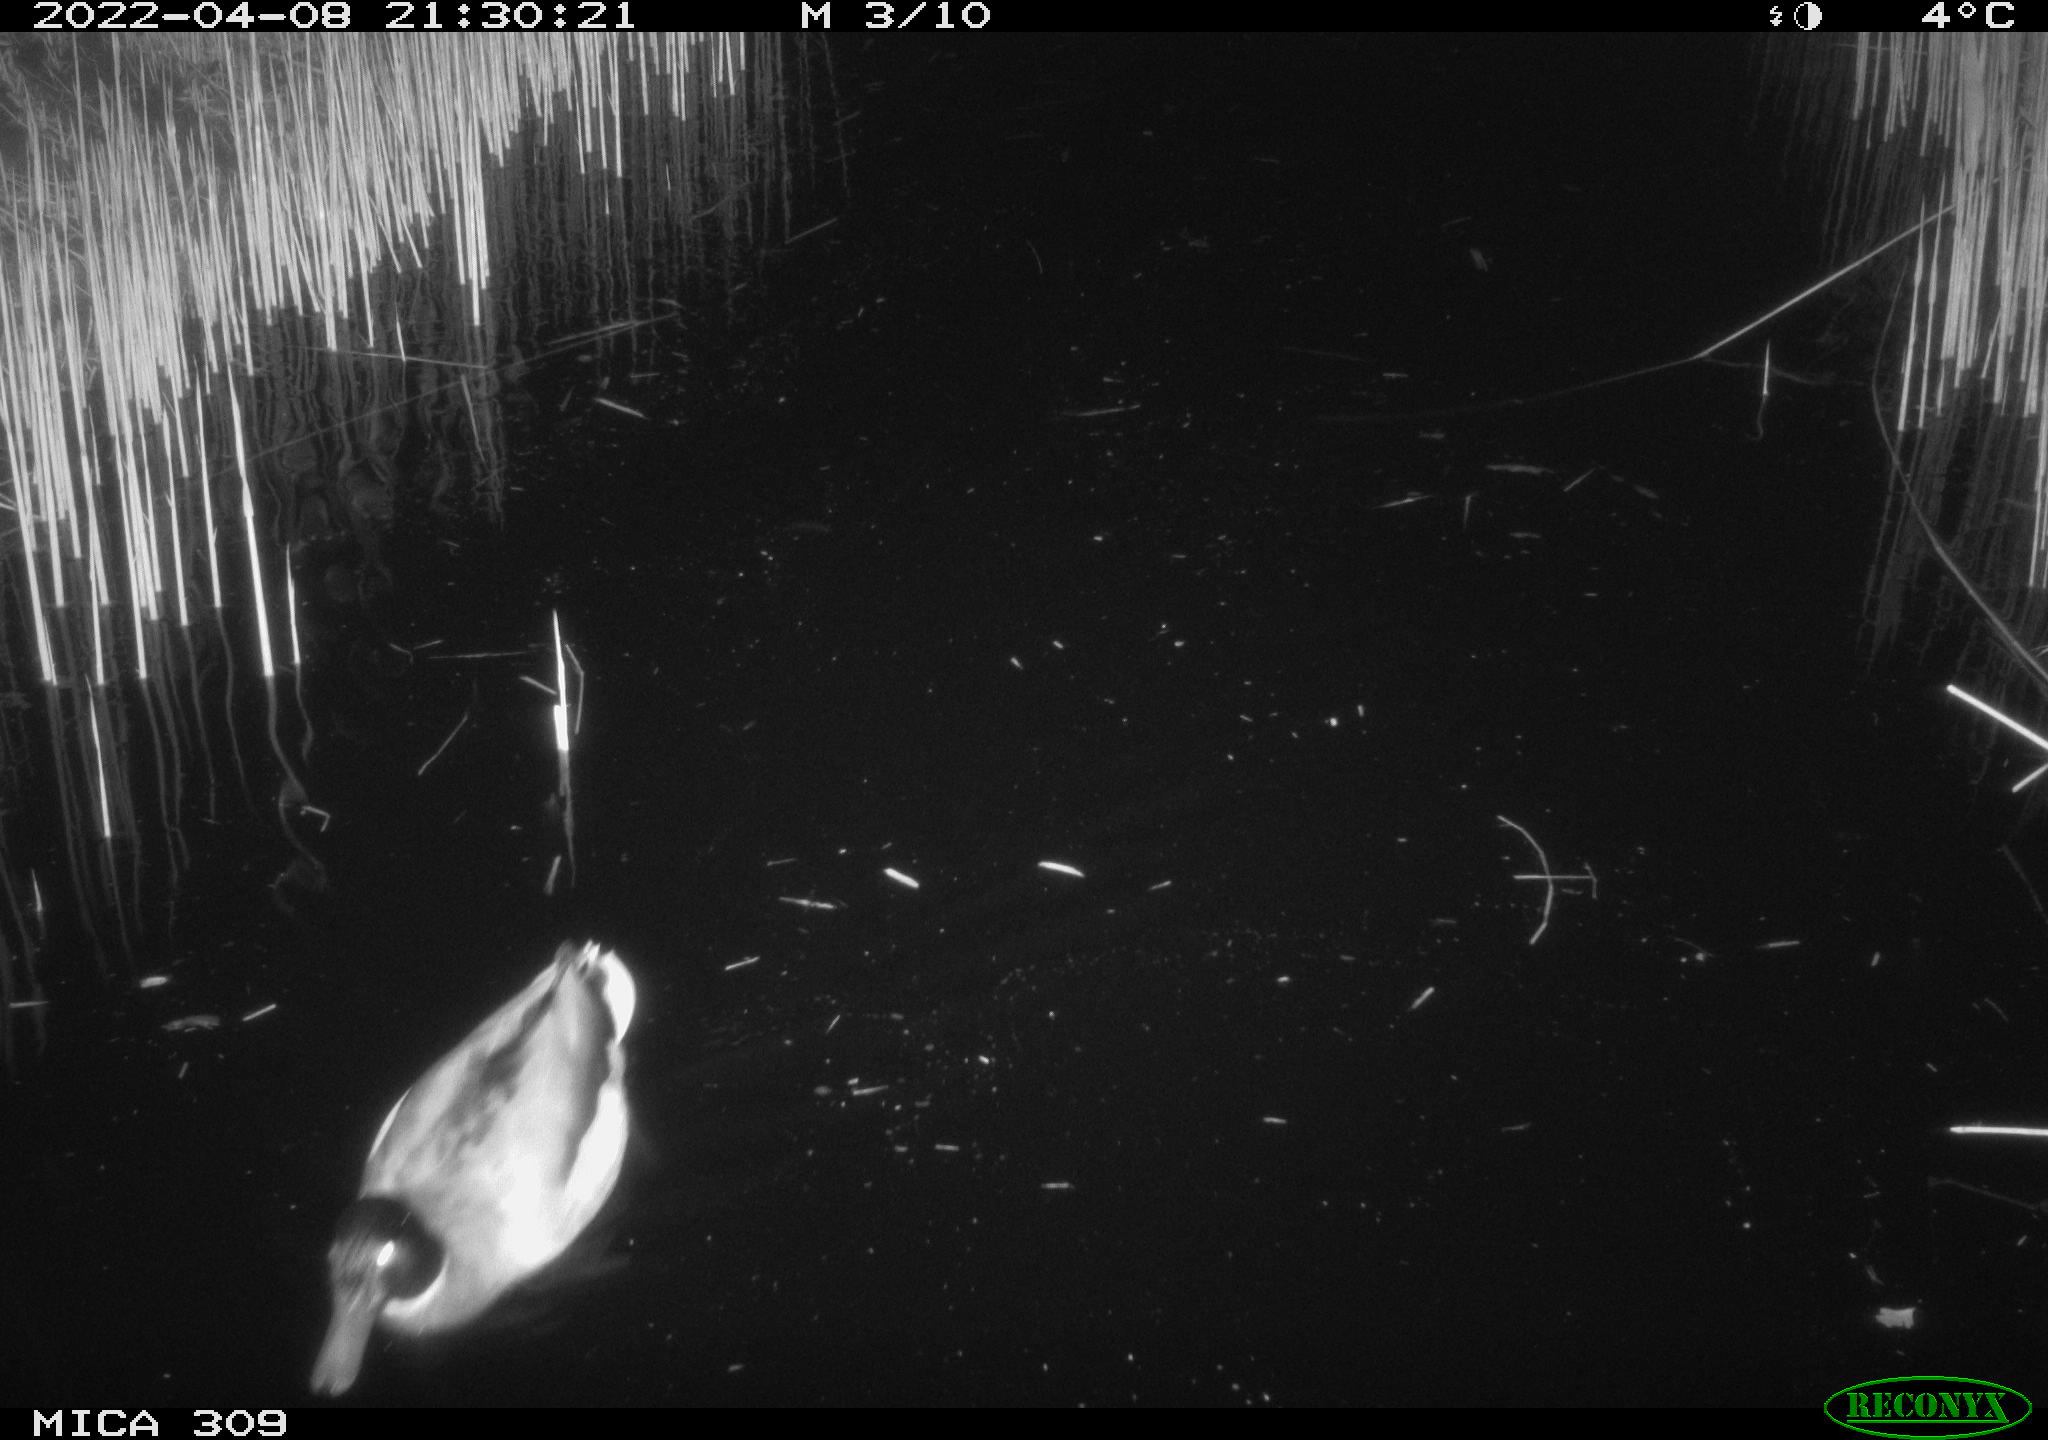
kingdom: Animalia
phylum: Chordata
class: Aves
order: Anseriformes
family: Anatidae
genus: Anas
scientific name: Anas platyrhynchos
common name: Mallard
